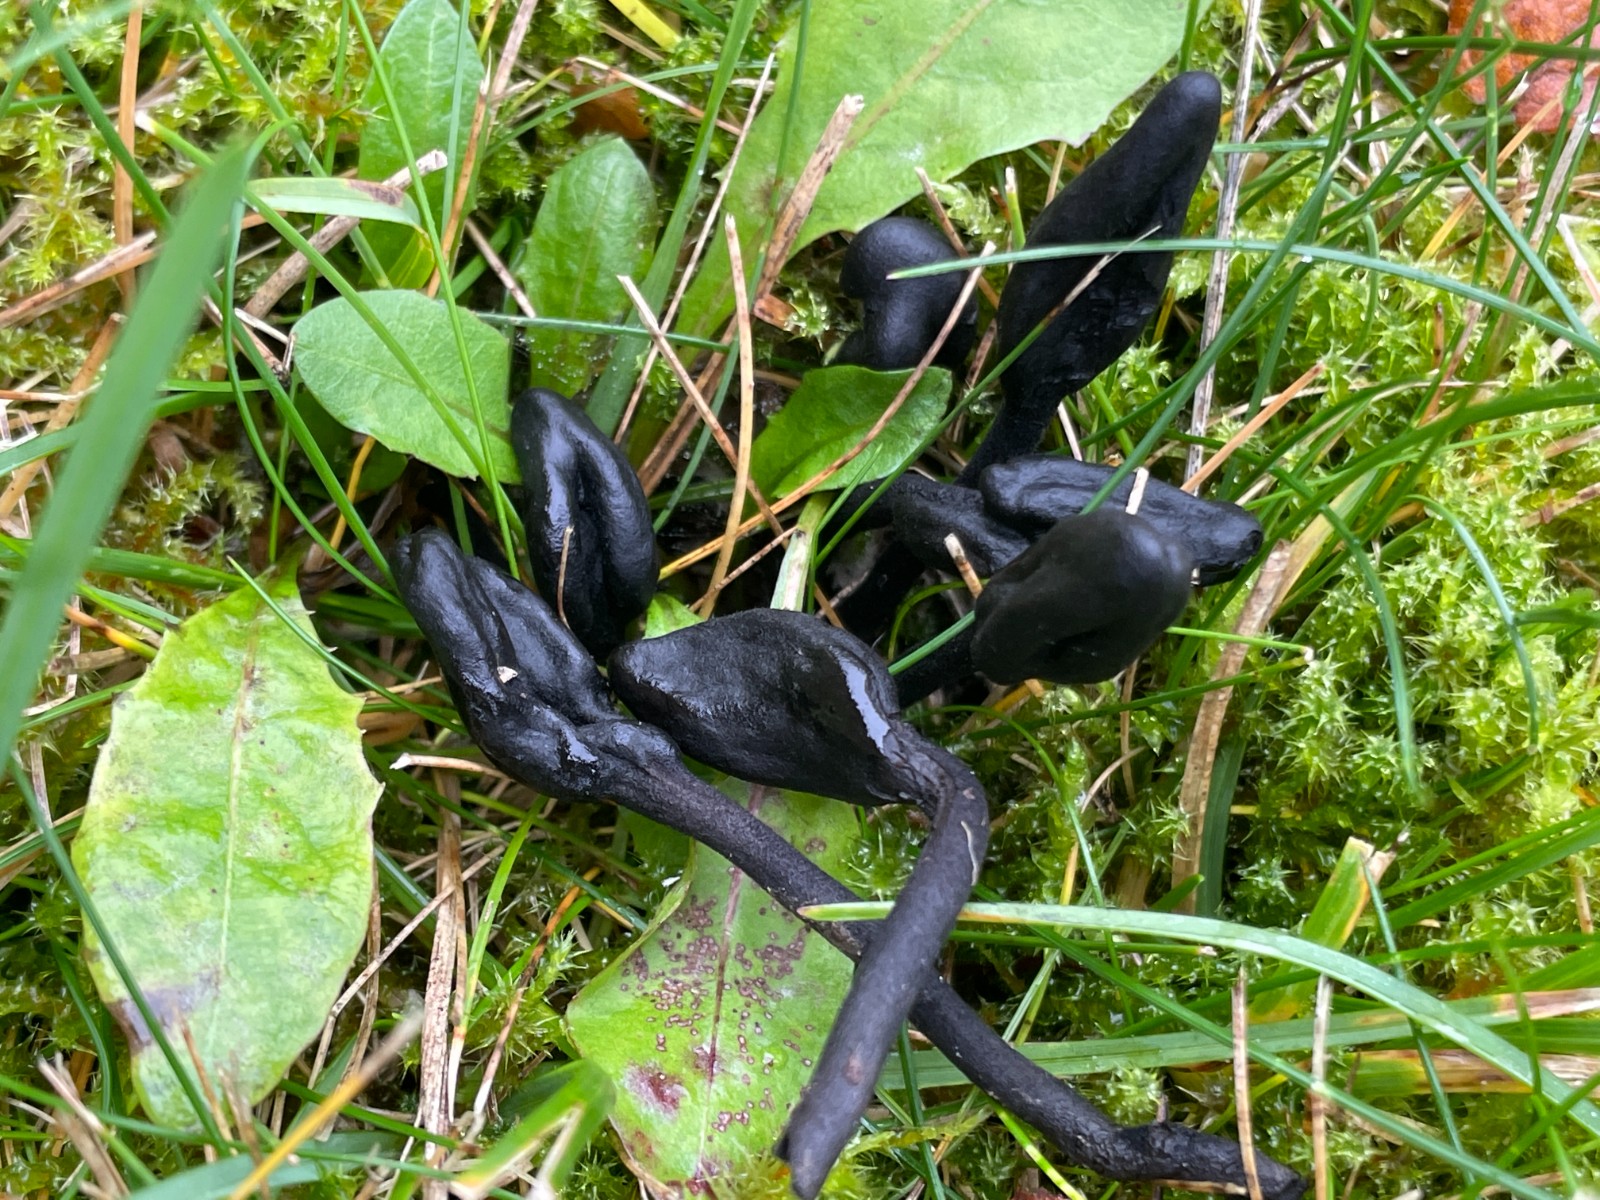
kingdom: Fungi
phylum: Ascomycota
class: Geoglossomycetes
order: Geoglossales
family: Geoglossaceae
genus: Trichoglossum
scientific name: Trichoglossum hirsutum
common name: håret jordtunge
